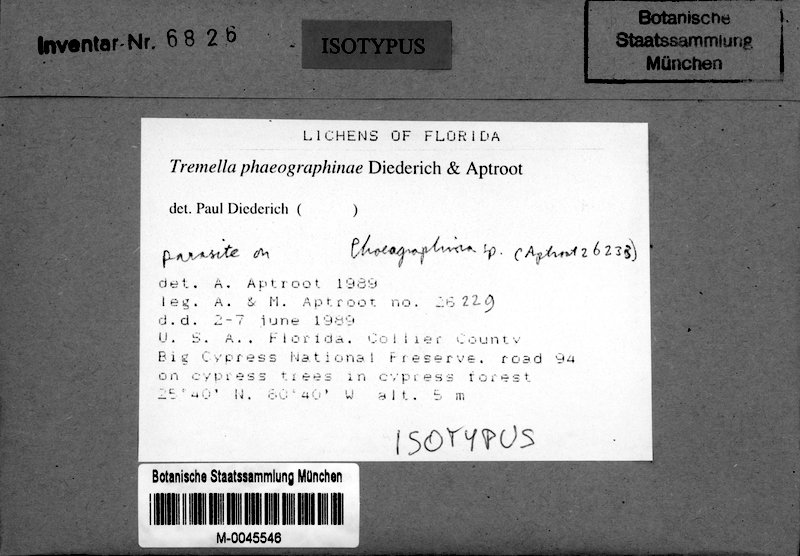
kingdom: Fungi
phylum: Basidiomycota
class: Tremellomycetes
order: Tremellales
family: Tremellaceae
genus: Tremella
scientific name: Tremella phaeographinae
